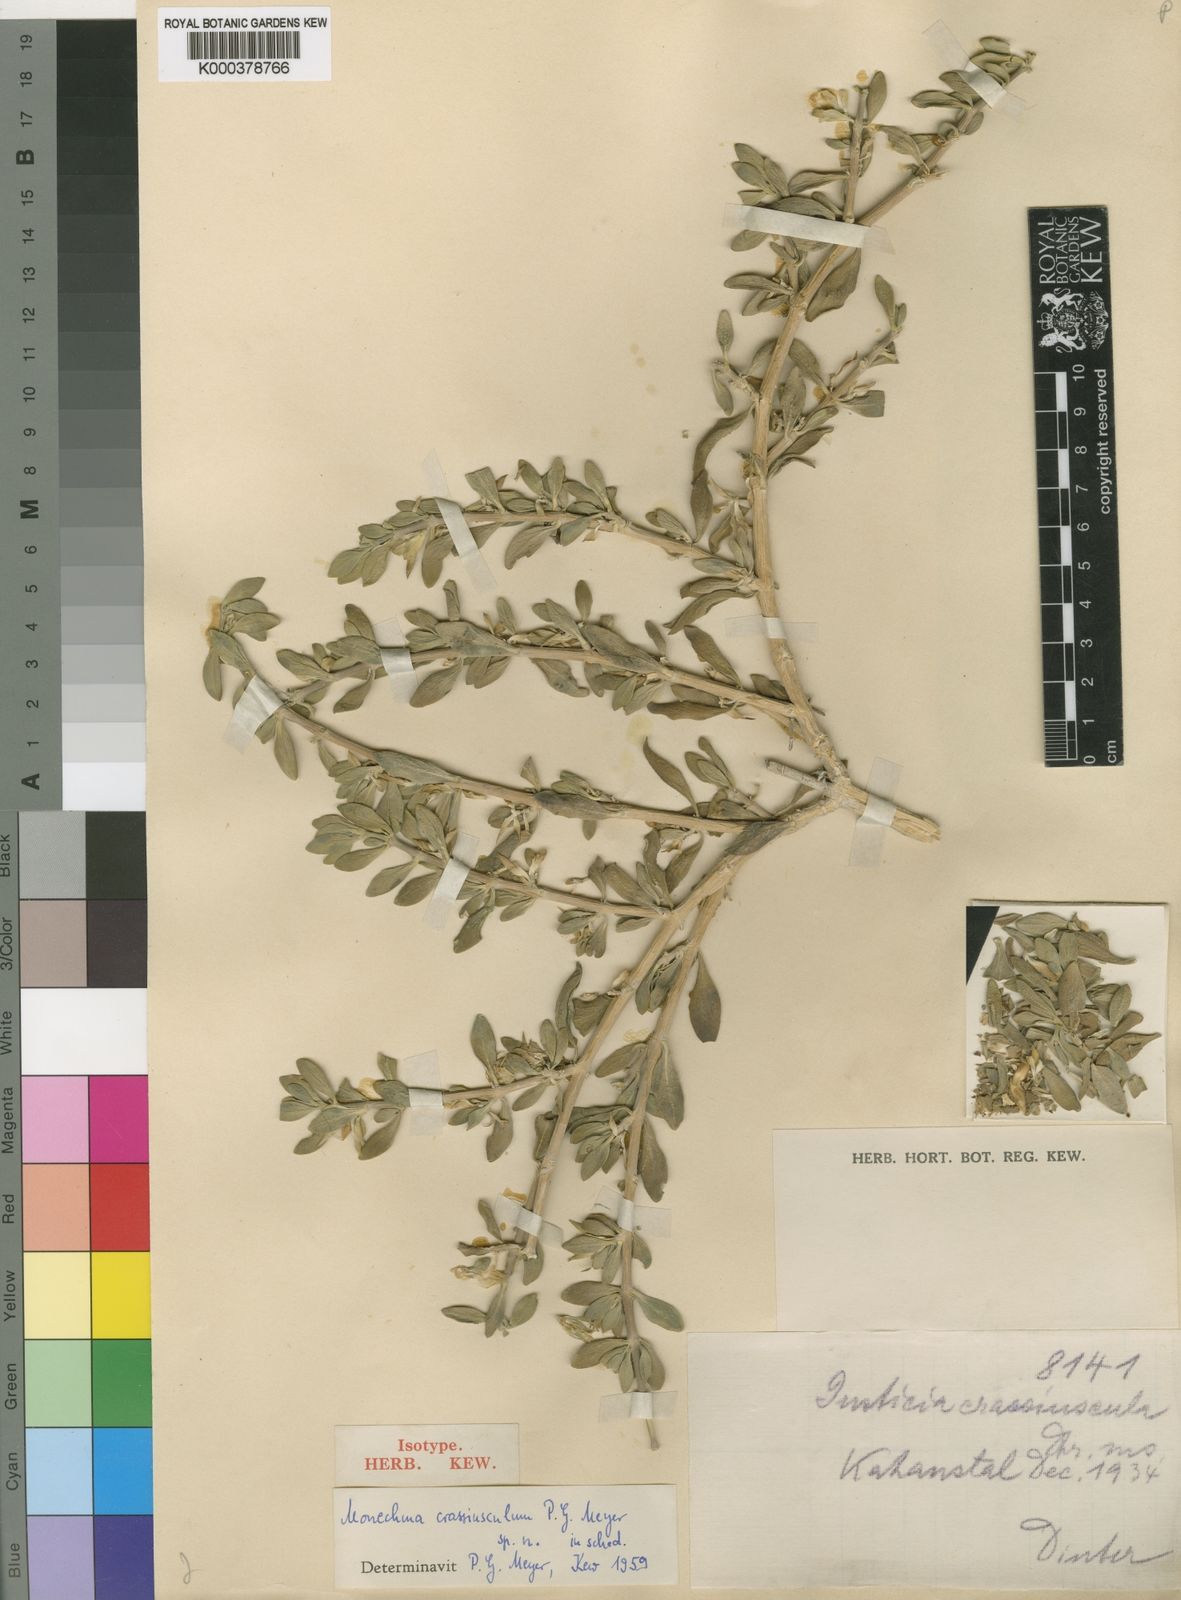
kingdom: Plantae
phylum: Tracheophyta
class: Magnoliopsida
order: Lamiales
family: Acanthaceae
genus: Monechma
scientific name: Monechma crassiusculum
